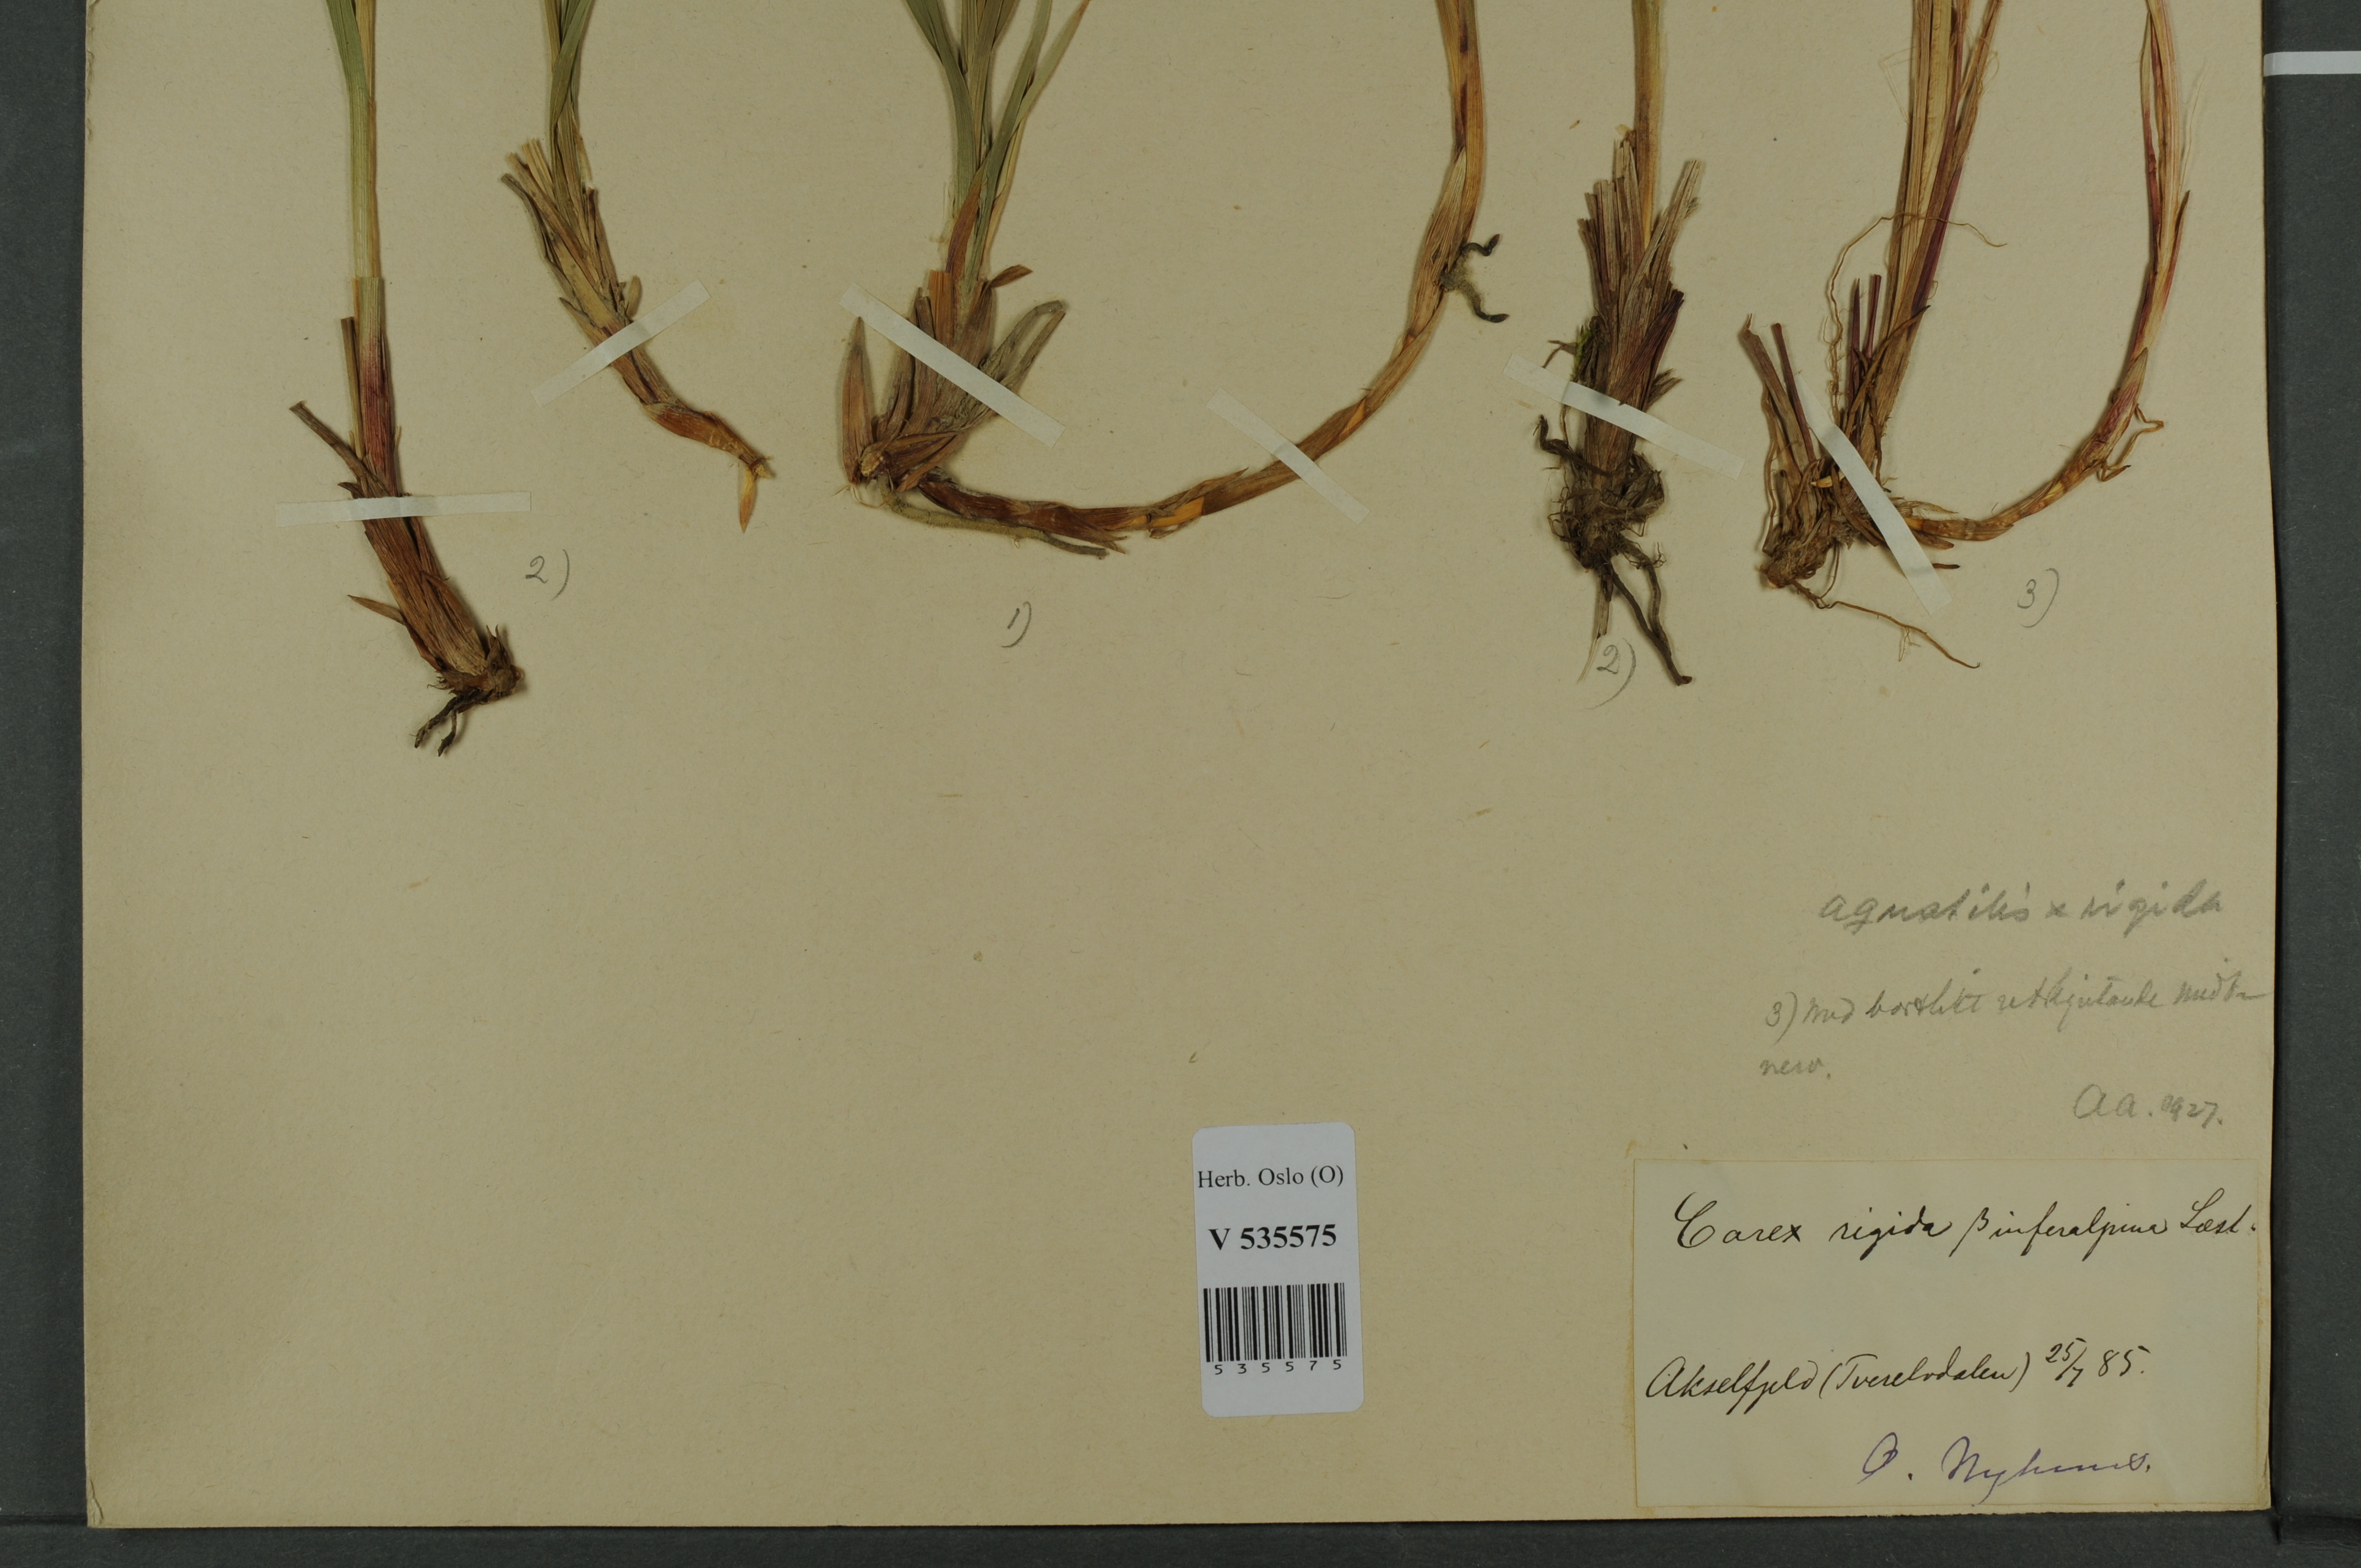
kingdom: Plantae
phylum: Tracheophyta
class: Liliopsida
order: Poales
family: Cyperaceae
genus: Carex
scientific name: Carex
